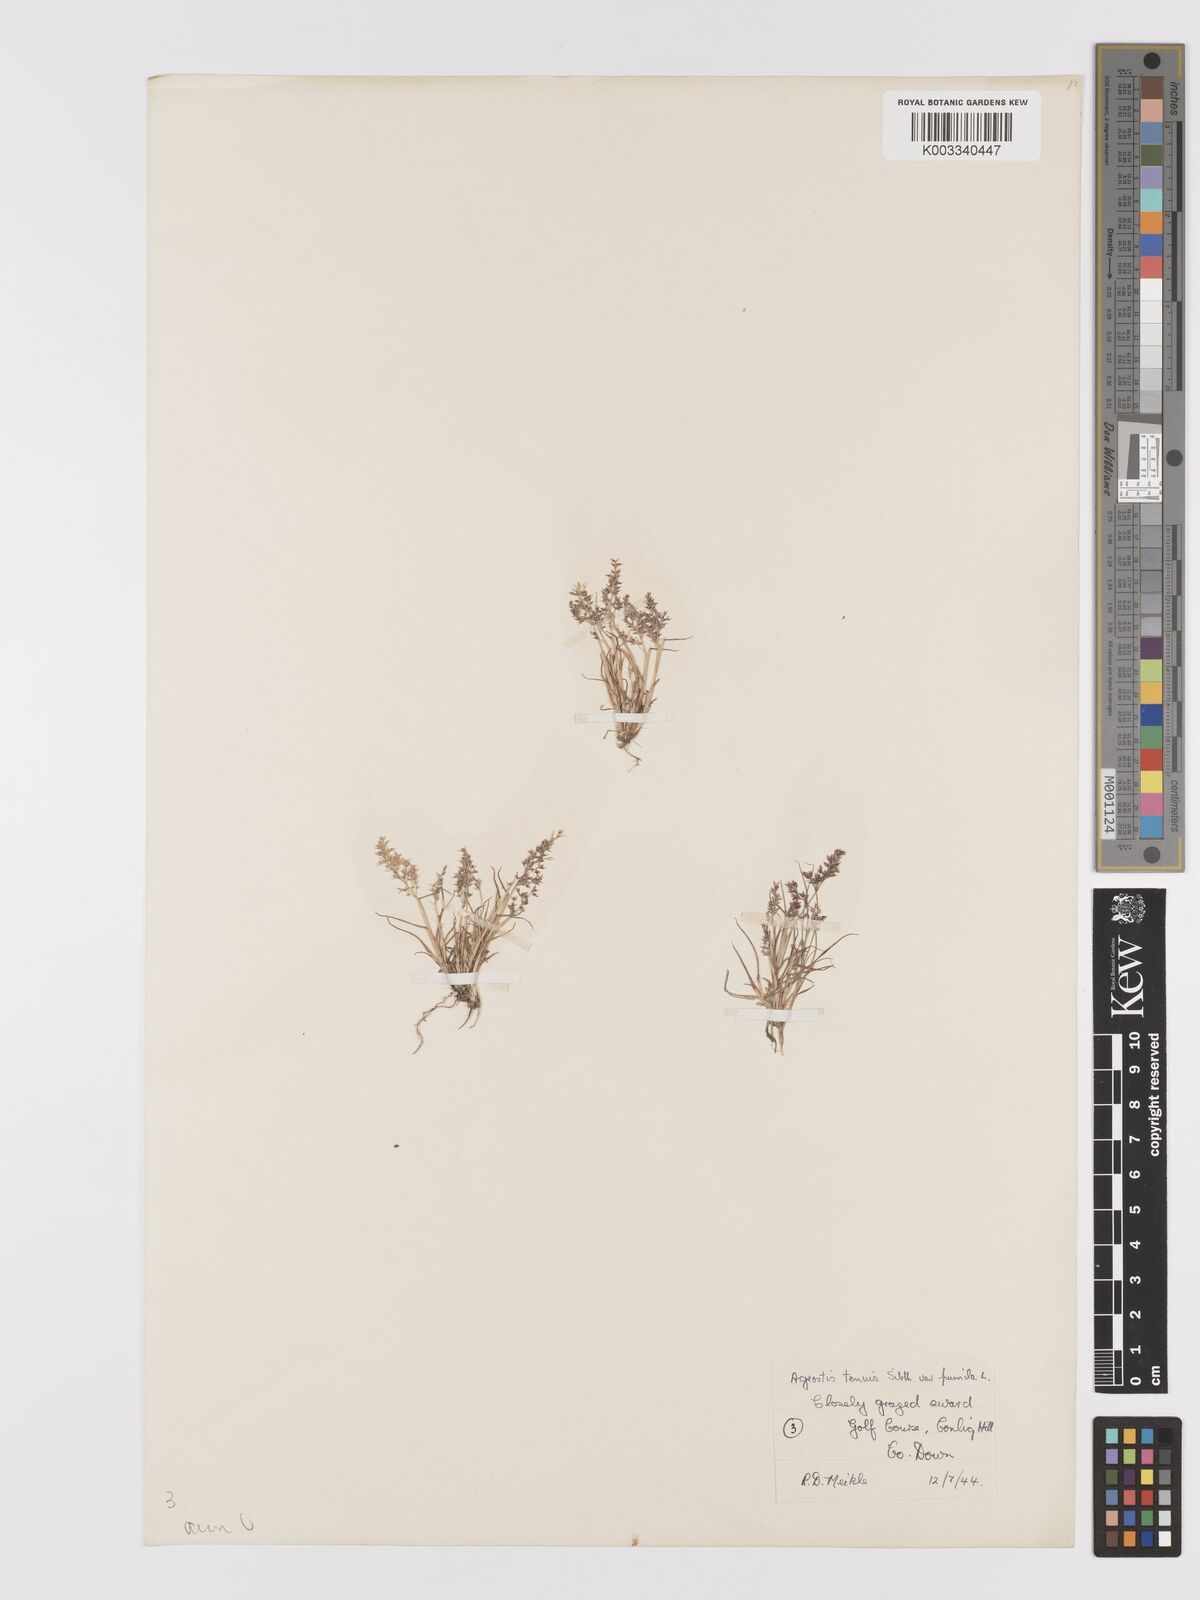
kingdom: Plantae
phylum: Tracheophyta
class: Liliopsida
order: Poales
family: Poaceae
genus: Agrostis
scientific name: Agrostis capillaris
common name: Colonial bentgrass
